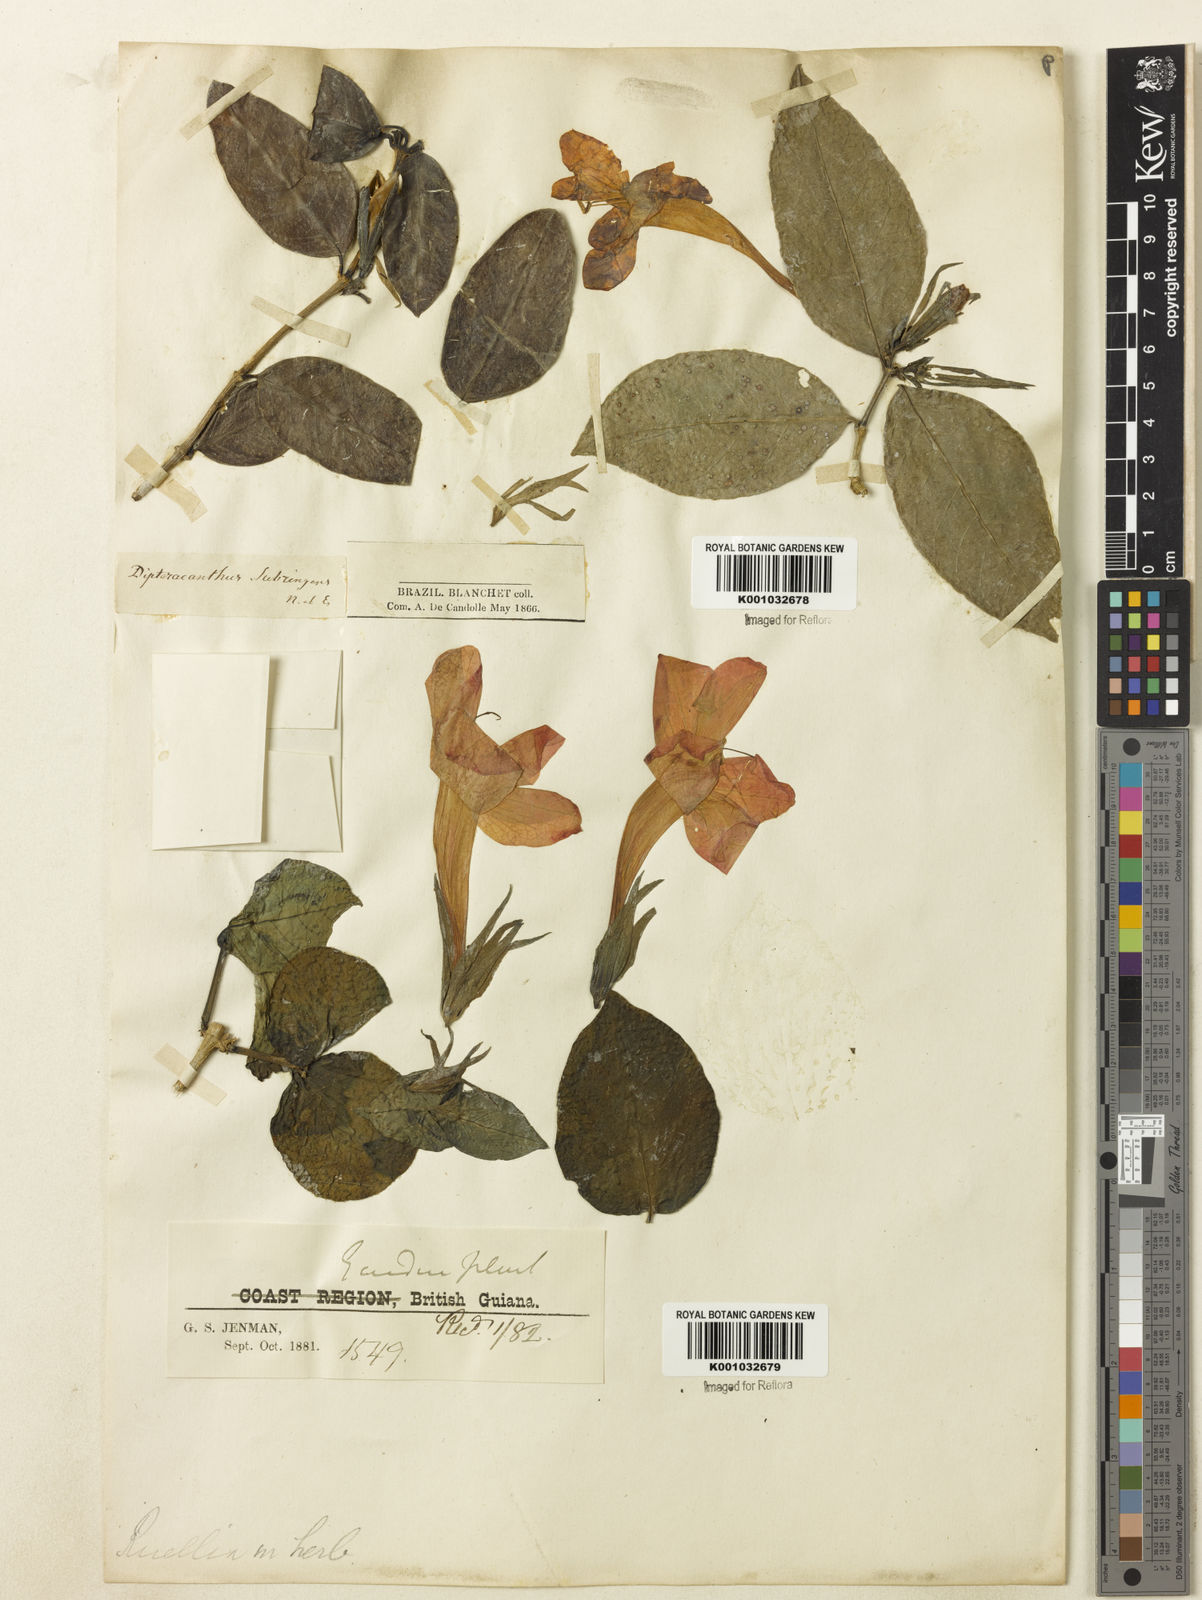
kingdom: Plantae
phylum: Tracheophyta
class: Magnoliopsida
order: Lamiales
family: Acanthaceae
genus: Ruellia
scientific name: Ruellia subringens
